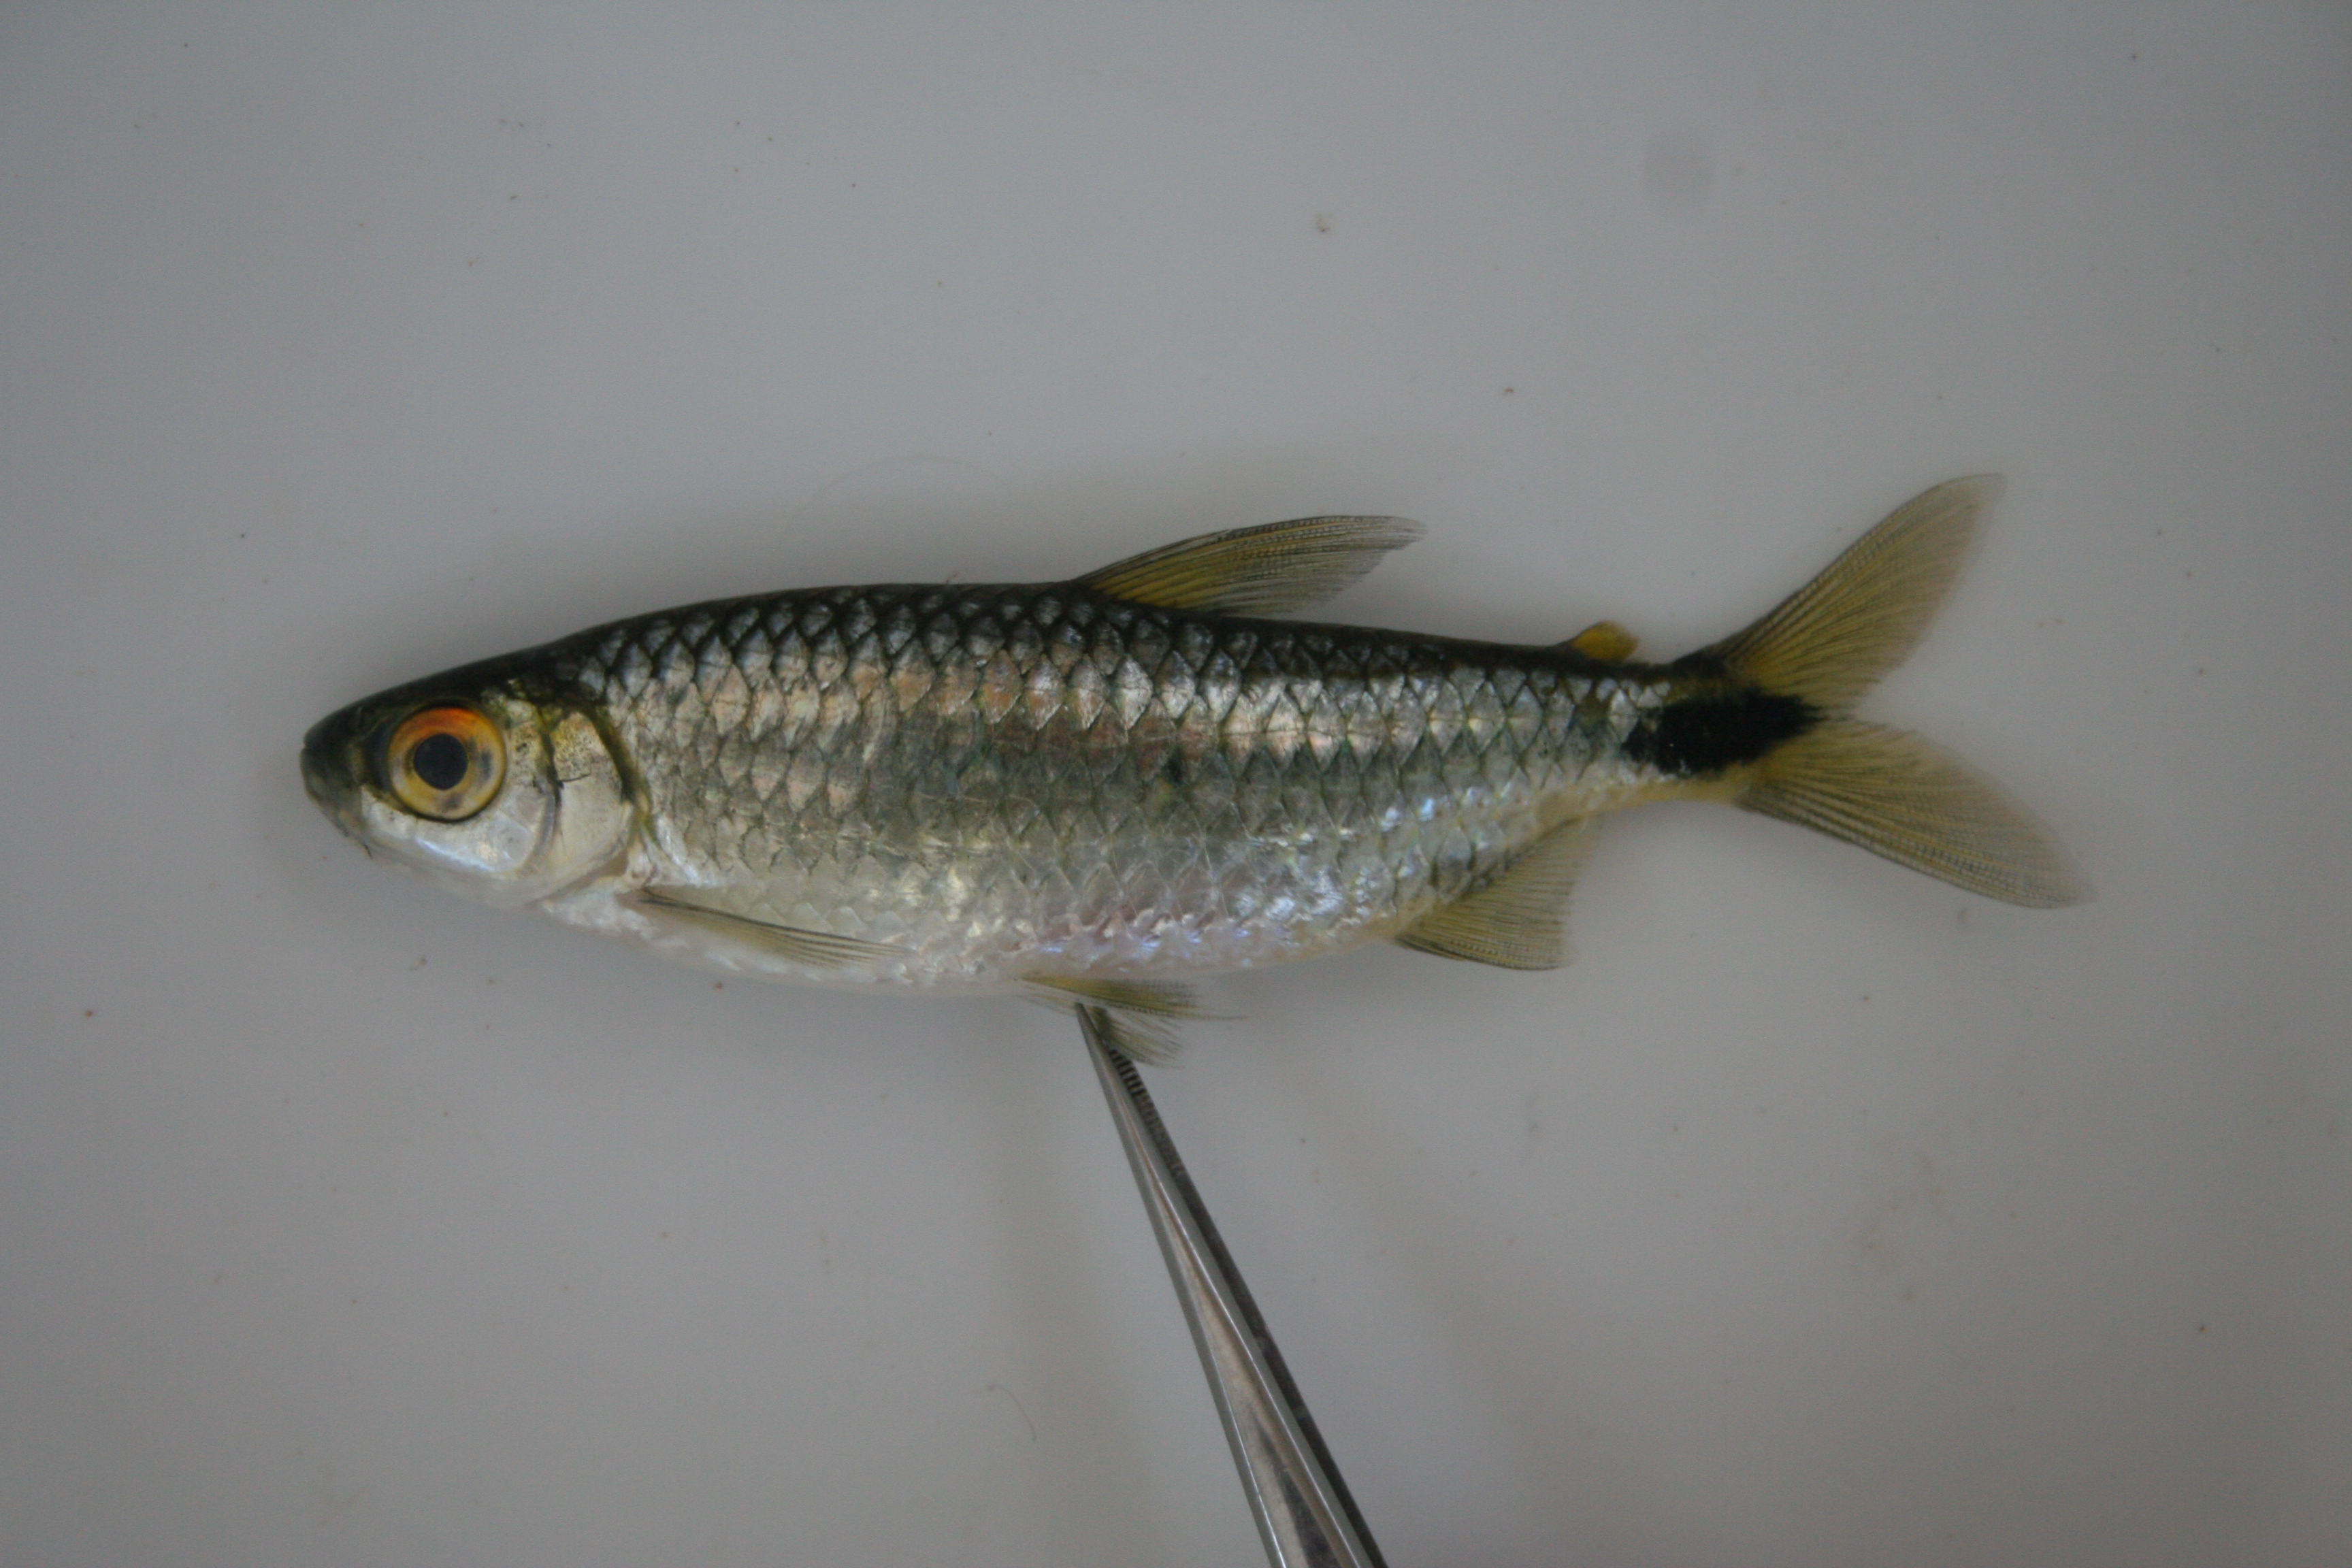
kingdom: Animalia
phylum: Chordata
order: Characiformes
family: Alestidae
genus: Brycinus
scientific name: Brycinus lateralis
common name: Striped robber
